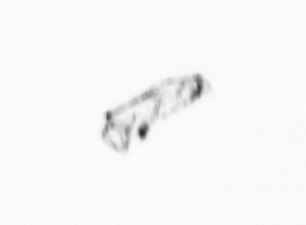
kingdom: Chromista
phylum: Ochrophyta
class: Bacillariophyceae
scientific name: Bacillariophyceae
